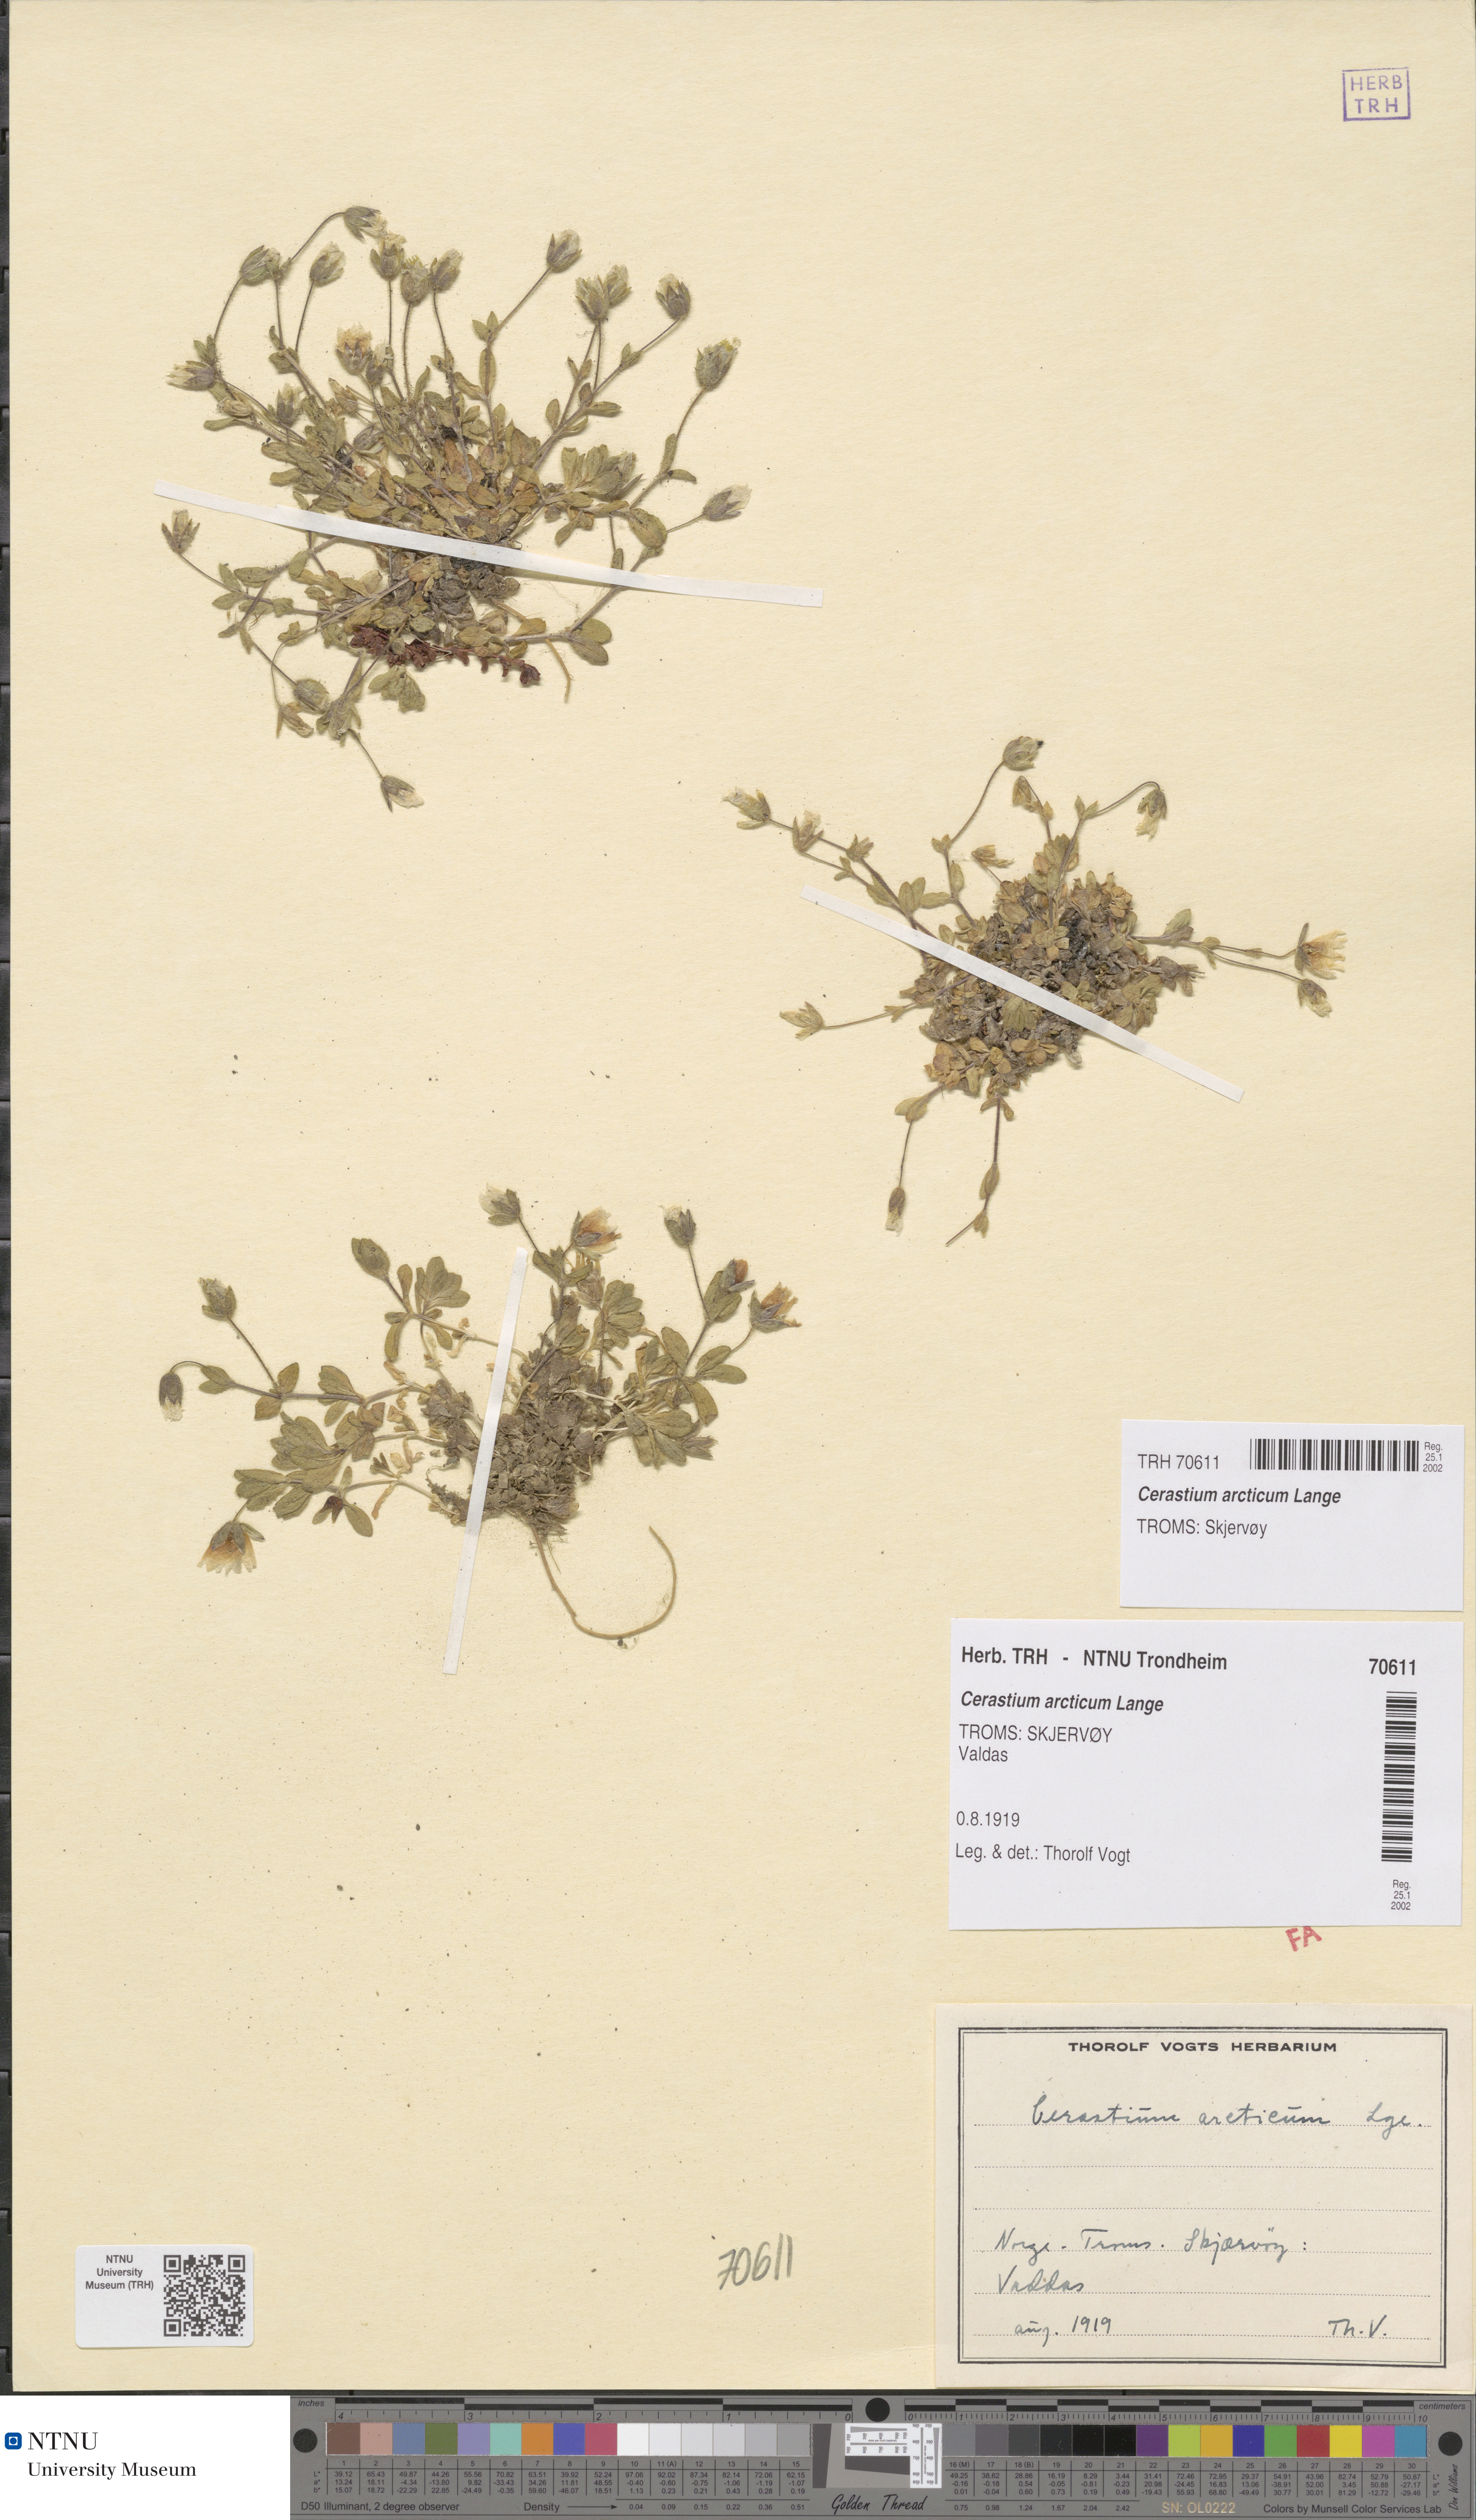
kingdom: Plantae
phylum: Tracheophyta
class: Magnoliopsida
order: Caryophyllales
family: Caryophyllaceae
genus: Cerastium
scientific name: Cerastium nigrescens
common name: Shetland mouse-ear
